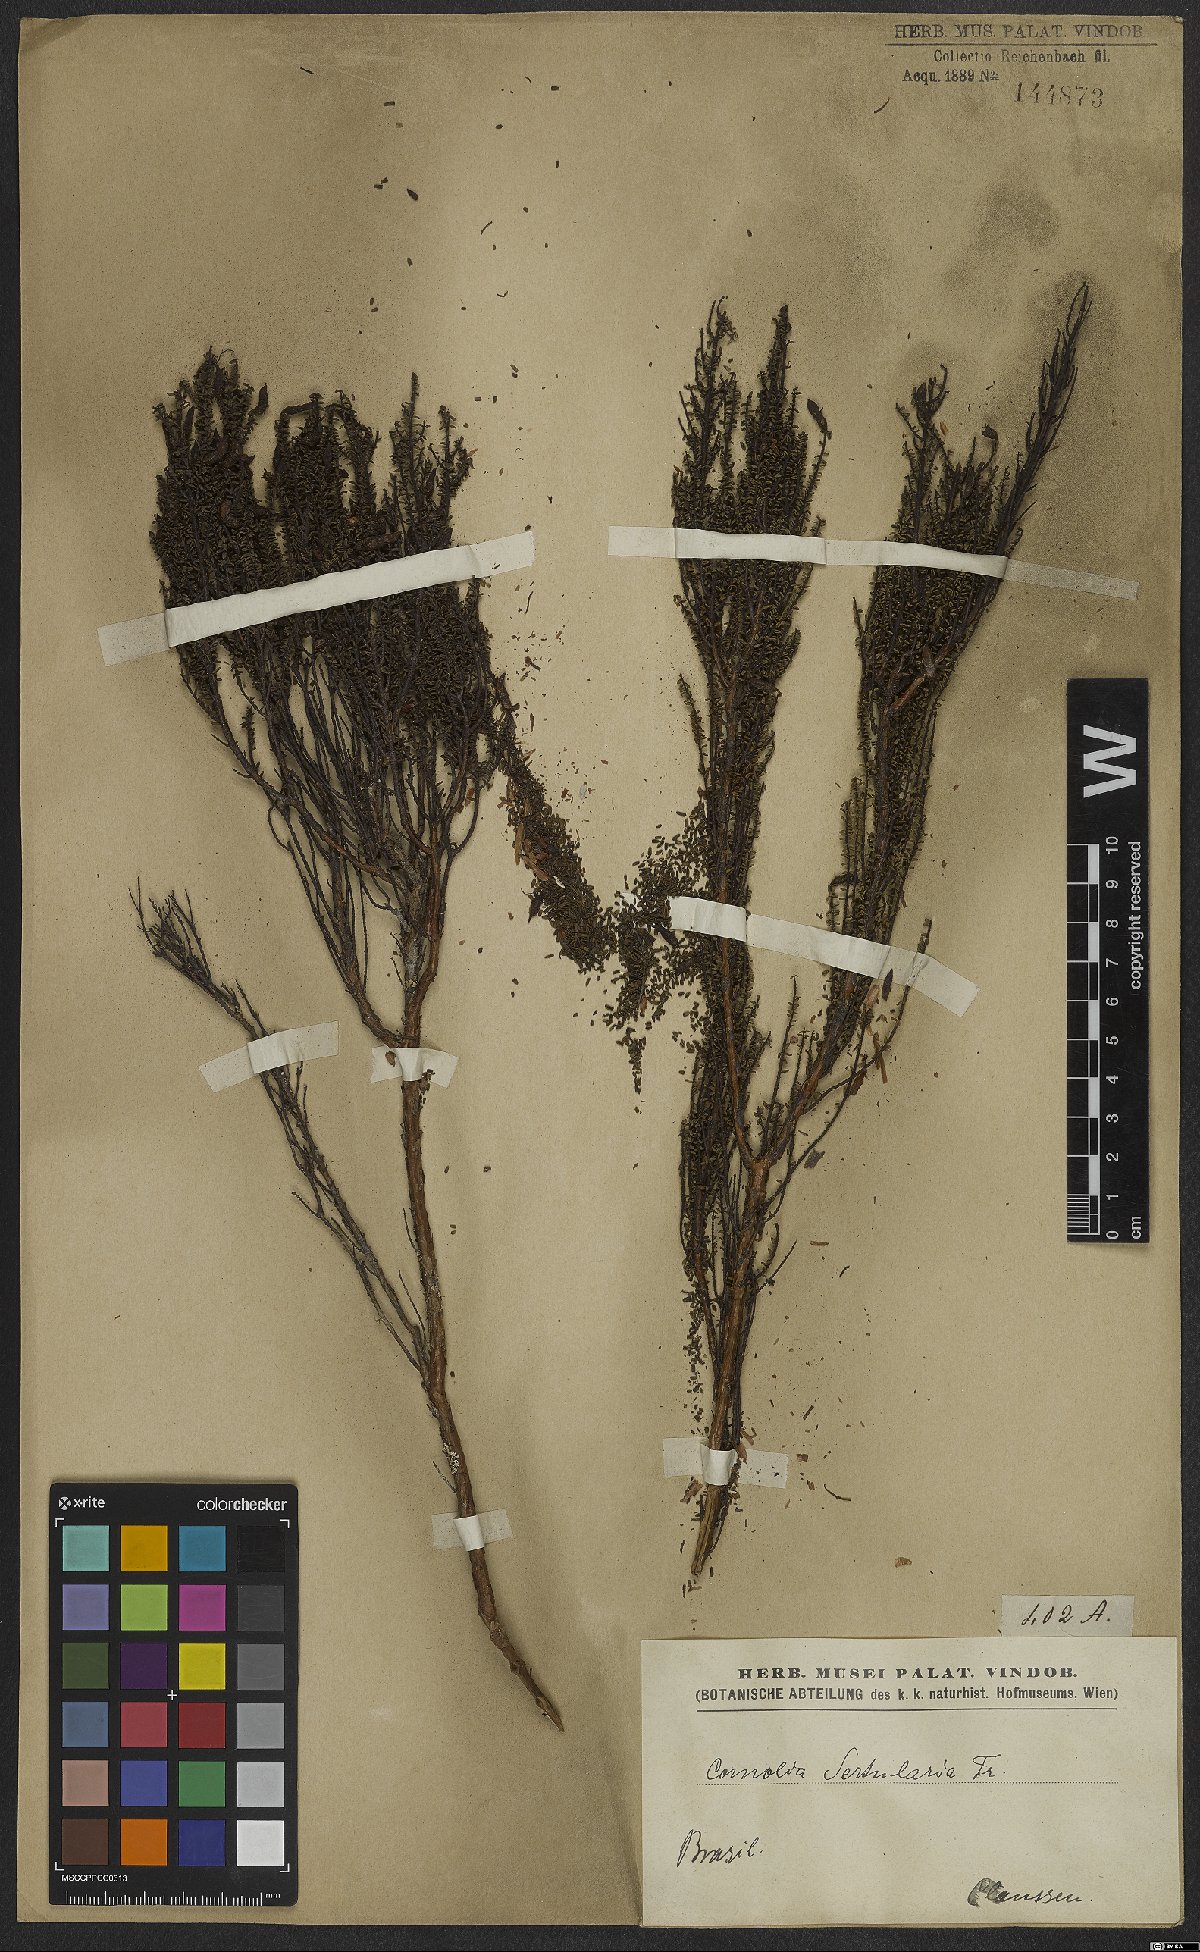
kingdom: Plantae
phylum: Tracheophyta
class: Magnoliopsida
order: Myrtales
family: Melastomataceae
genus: Fritzschia
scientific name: Fritzschia sertularia
